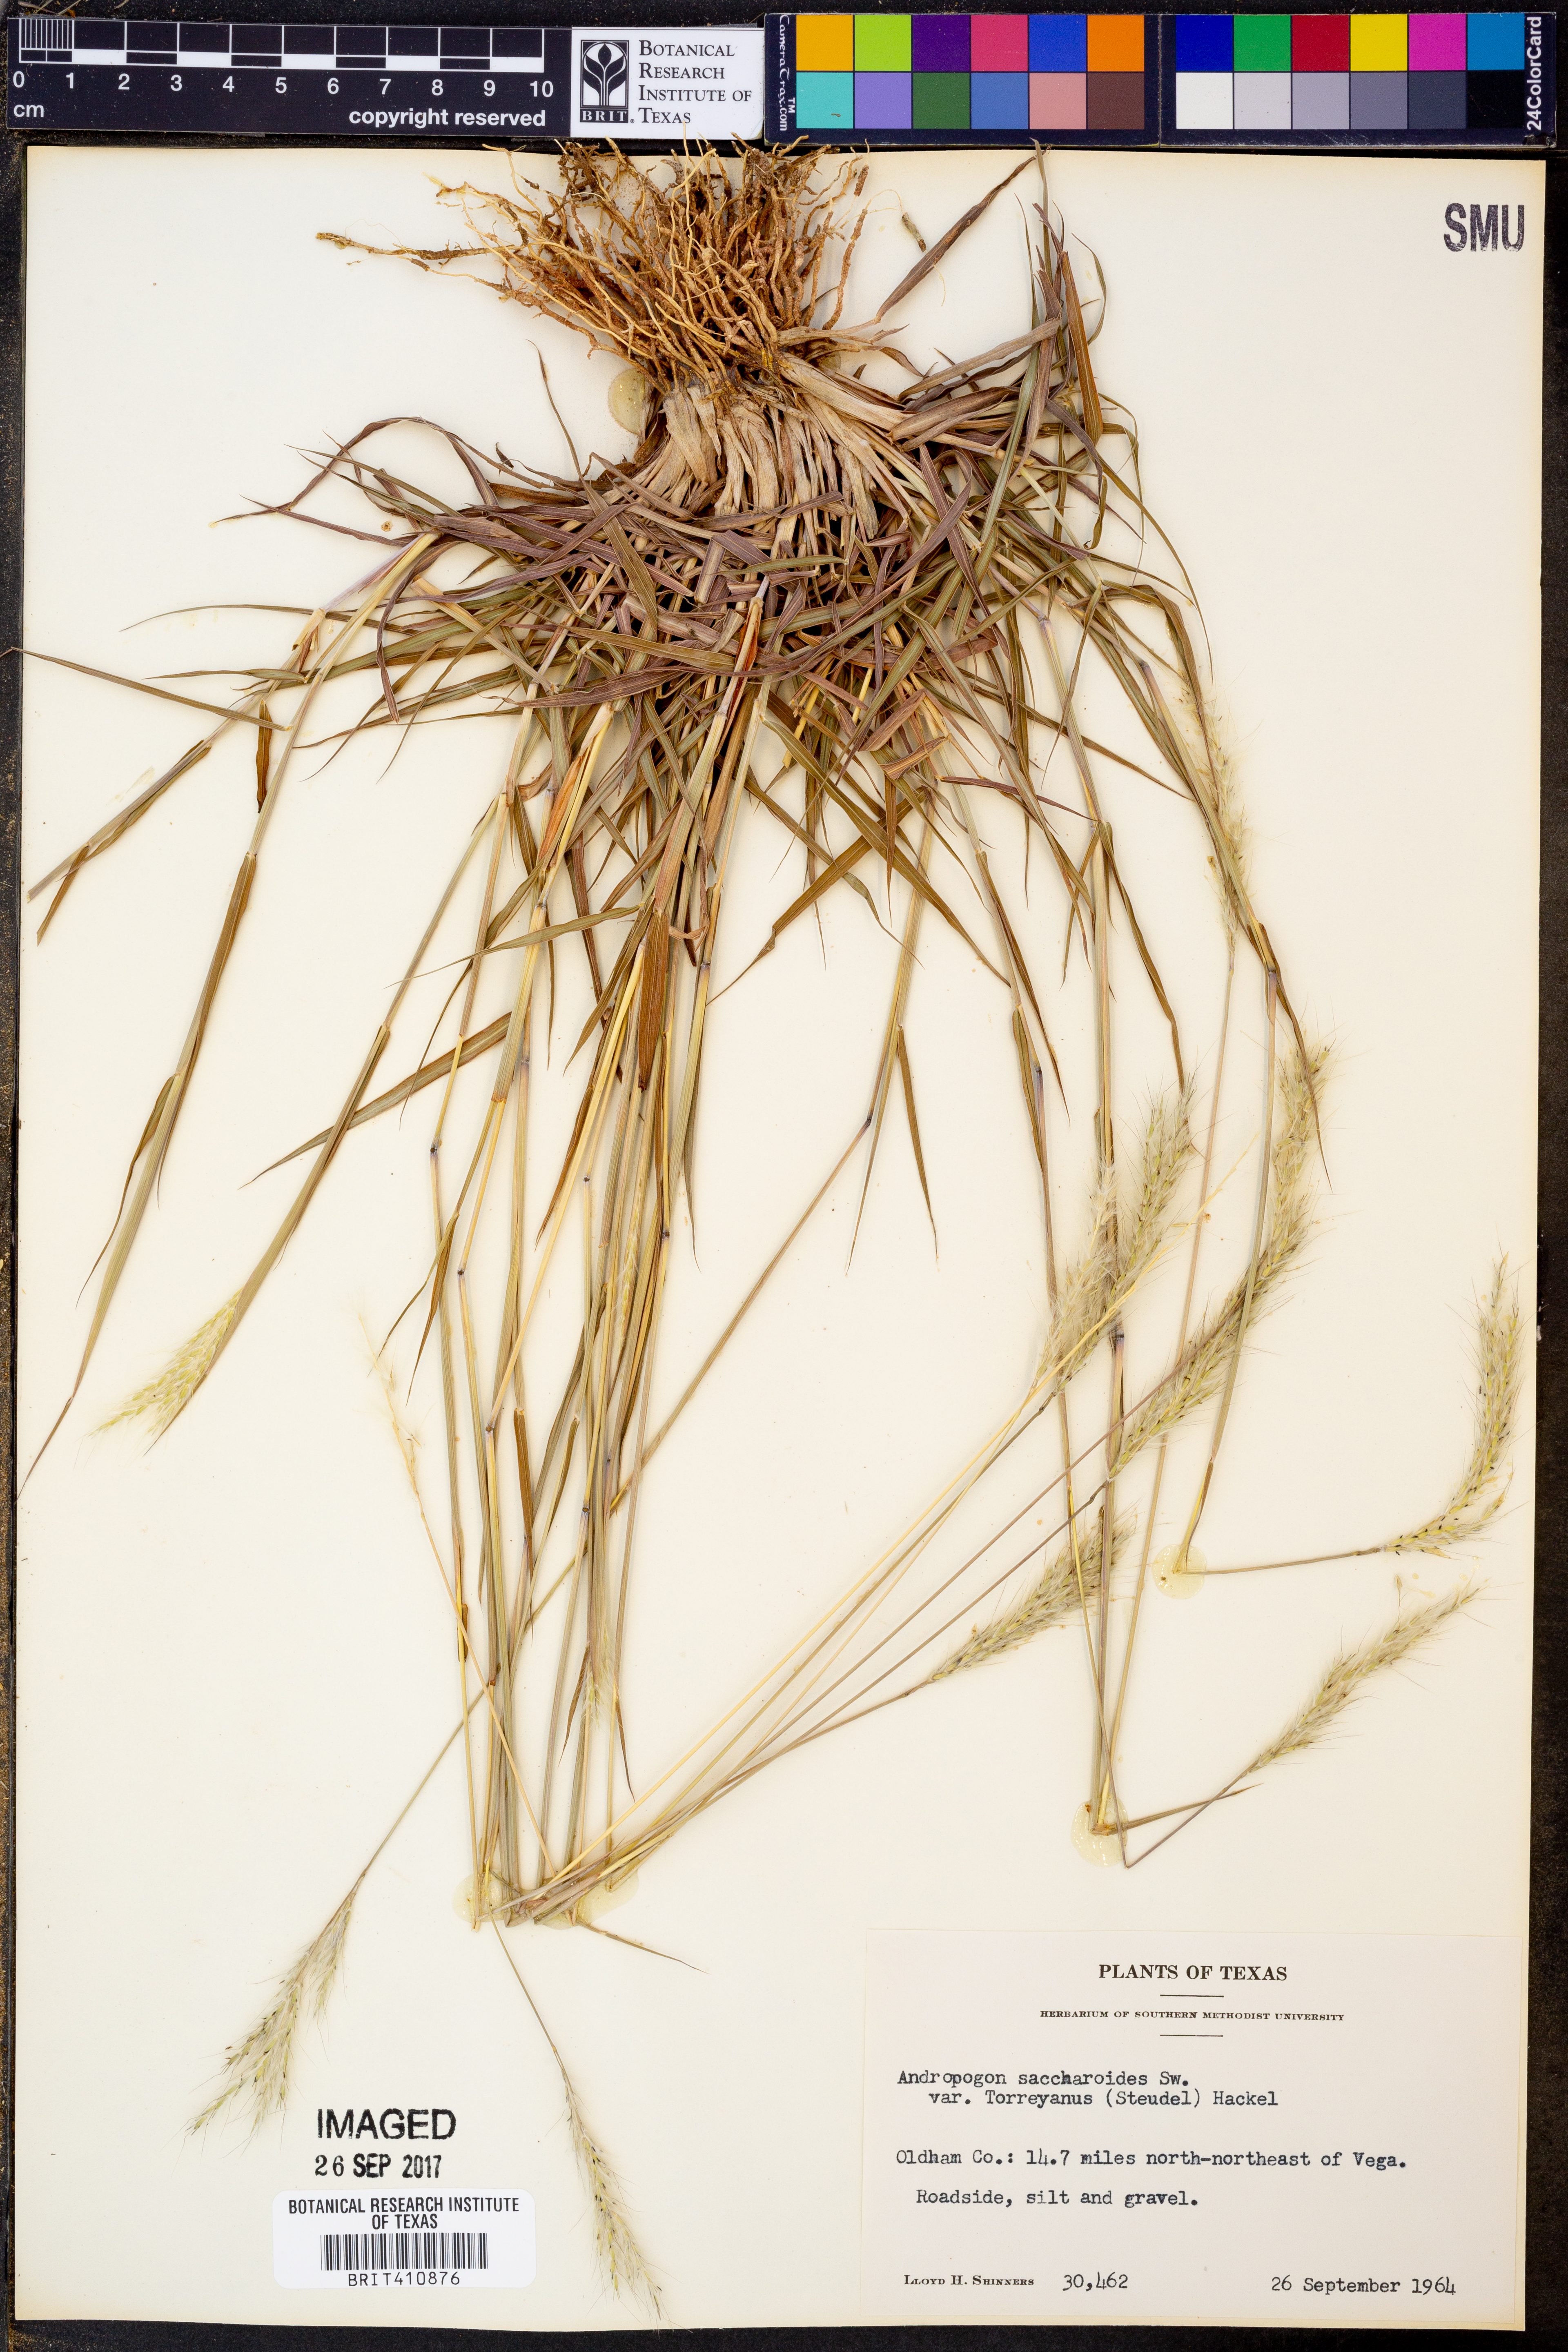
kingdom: Plantae
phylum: Tracheophyta
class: Liliopsida
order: Poales
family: Poaceae
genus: Bothriochloa
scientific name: Bothriochloa torreyana
